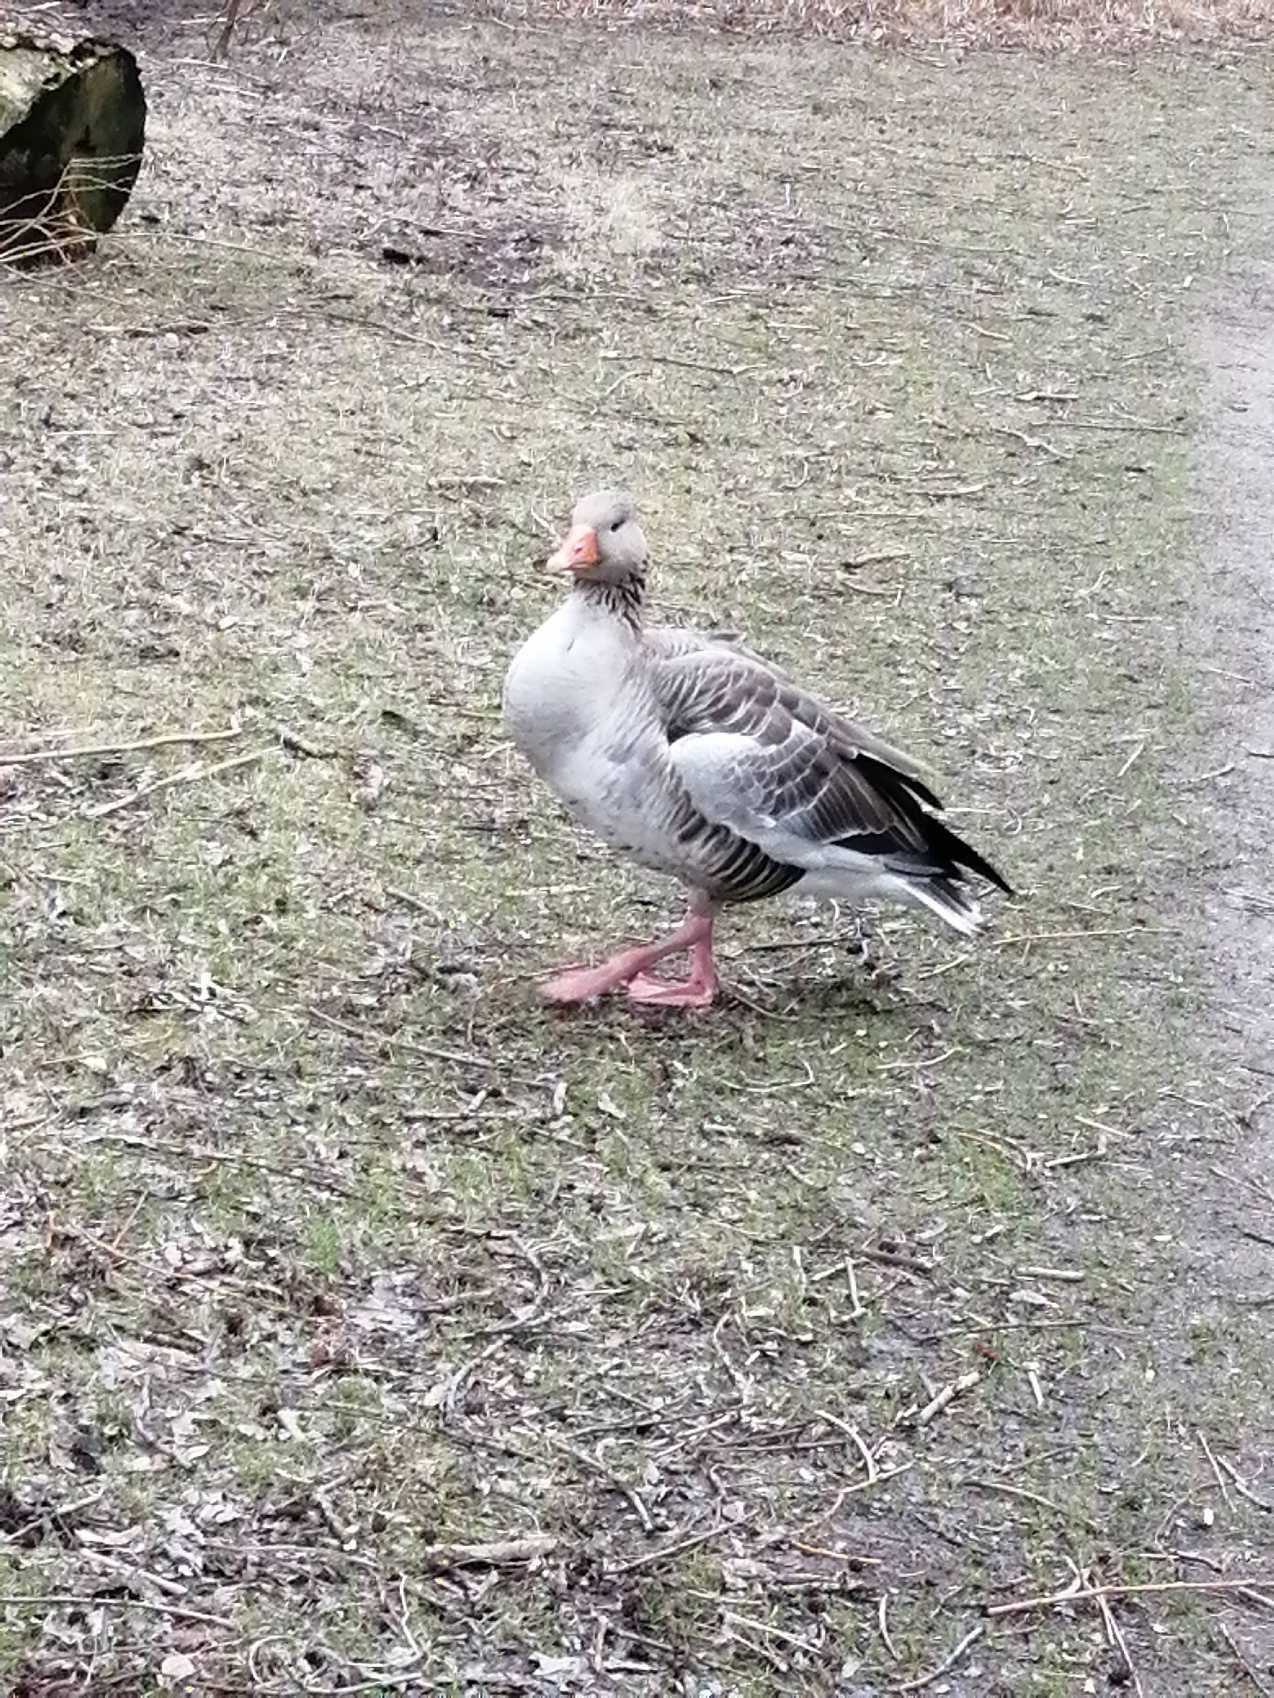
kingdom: Animalia
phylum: Chordata
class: Aves
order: Anseriformes
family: Anatidae
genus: Anser
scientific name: Anser anser
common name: Grågås
